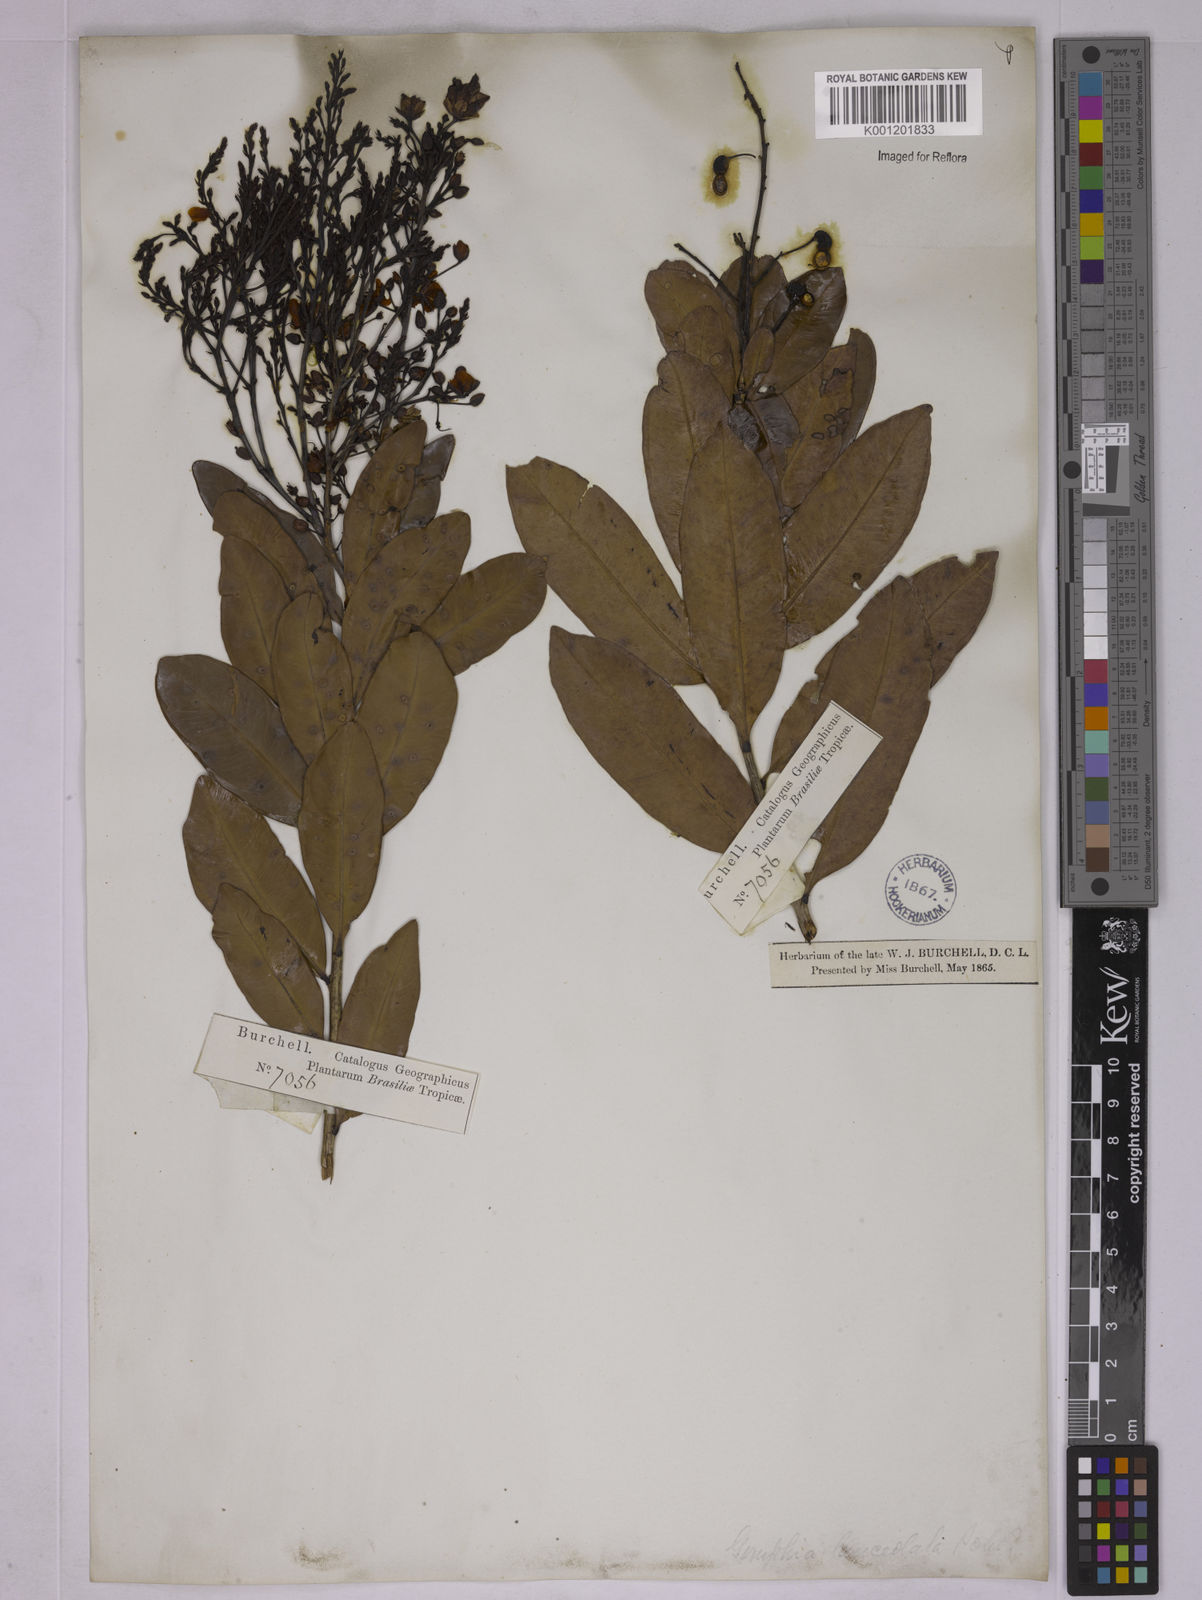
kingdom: Plantae
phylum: Tracheophyta
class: Magnoliopsida
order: Malpighiales
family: Ochnaceae
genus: Ouratea
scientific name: Ouratea confertiflora
